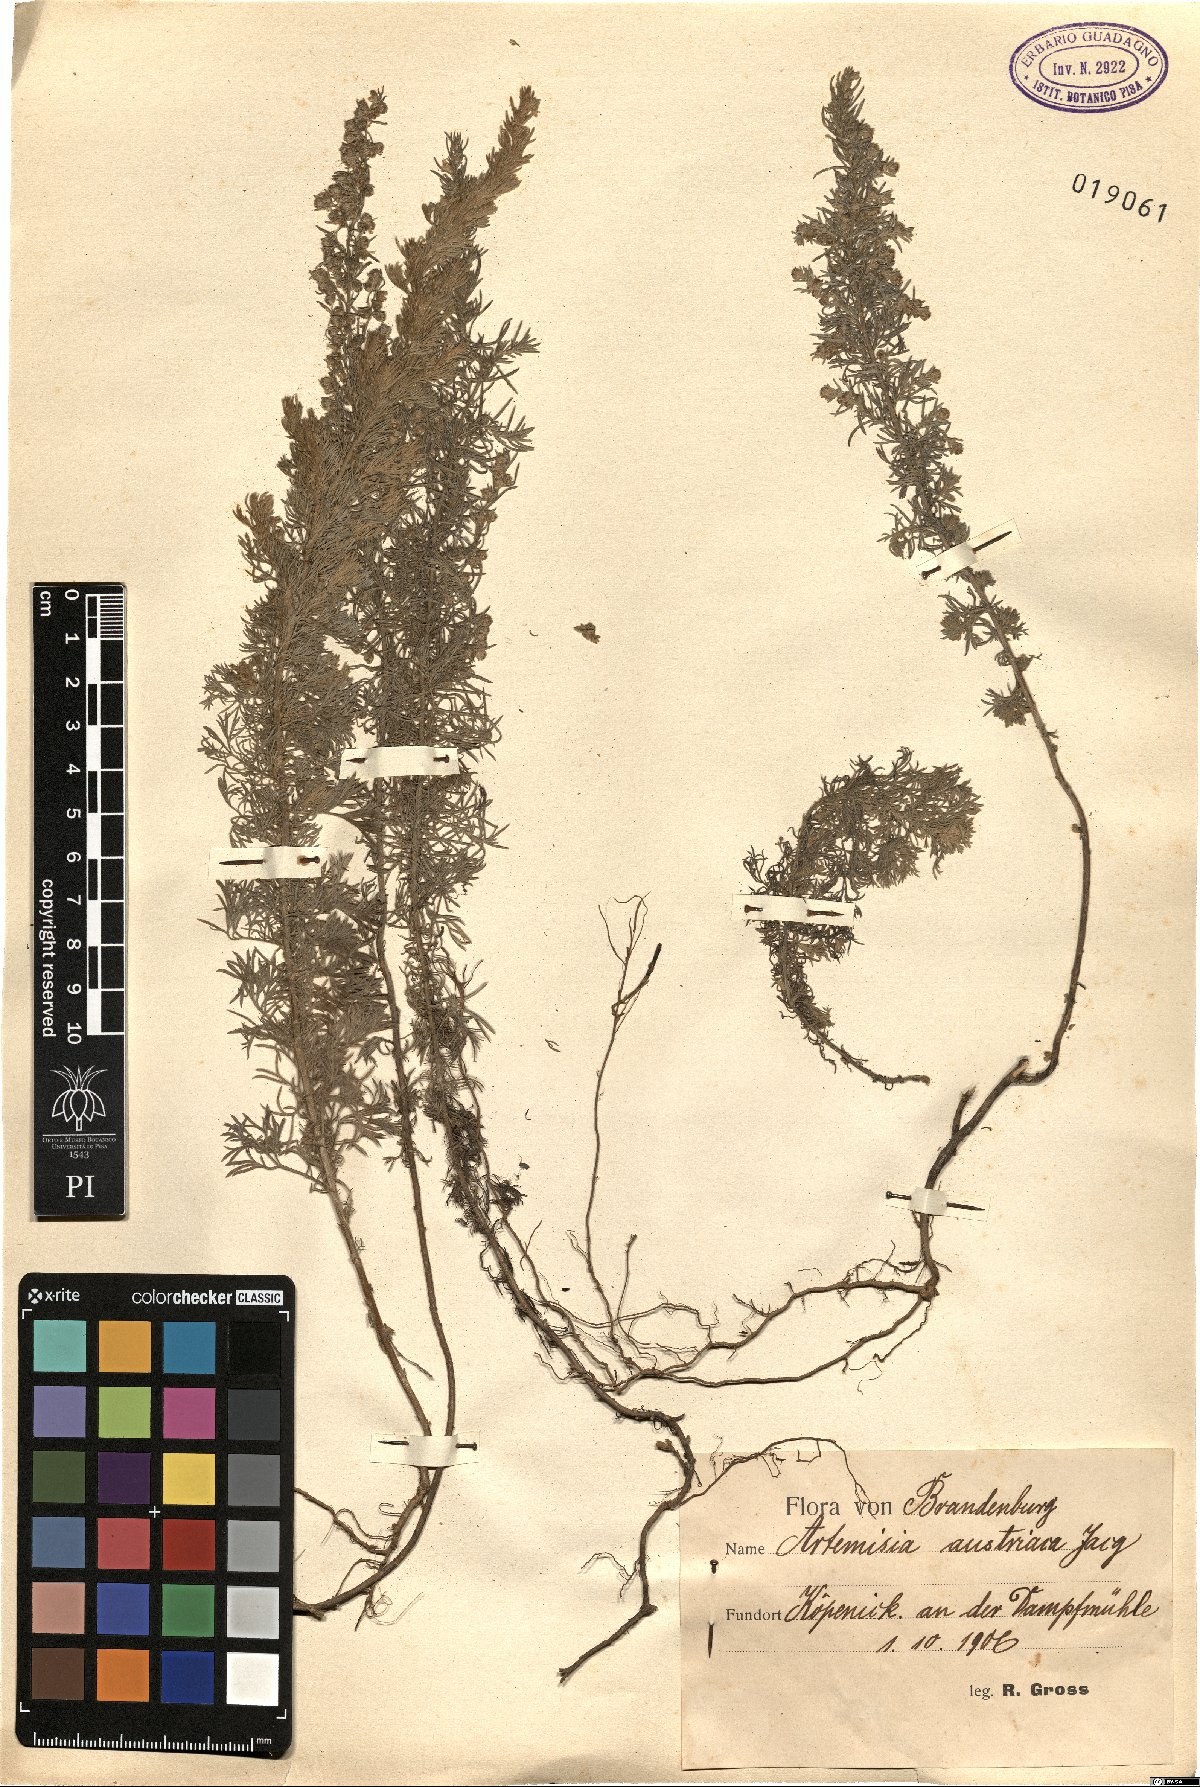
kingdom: Plantae
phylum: Tracheophyta
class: Magnoliopsida
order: Asterales
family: Asteraceae
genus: Artemisia
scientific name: Artemisia austriaca
